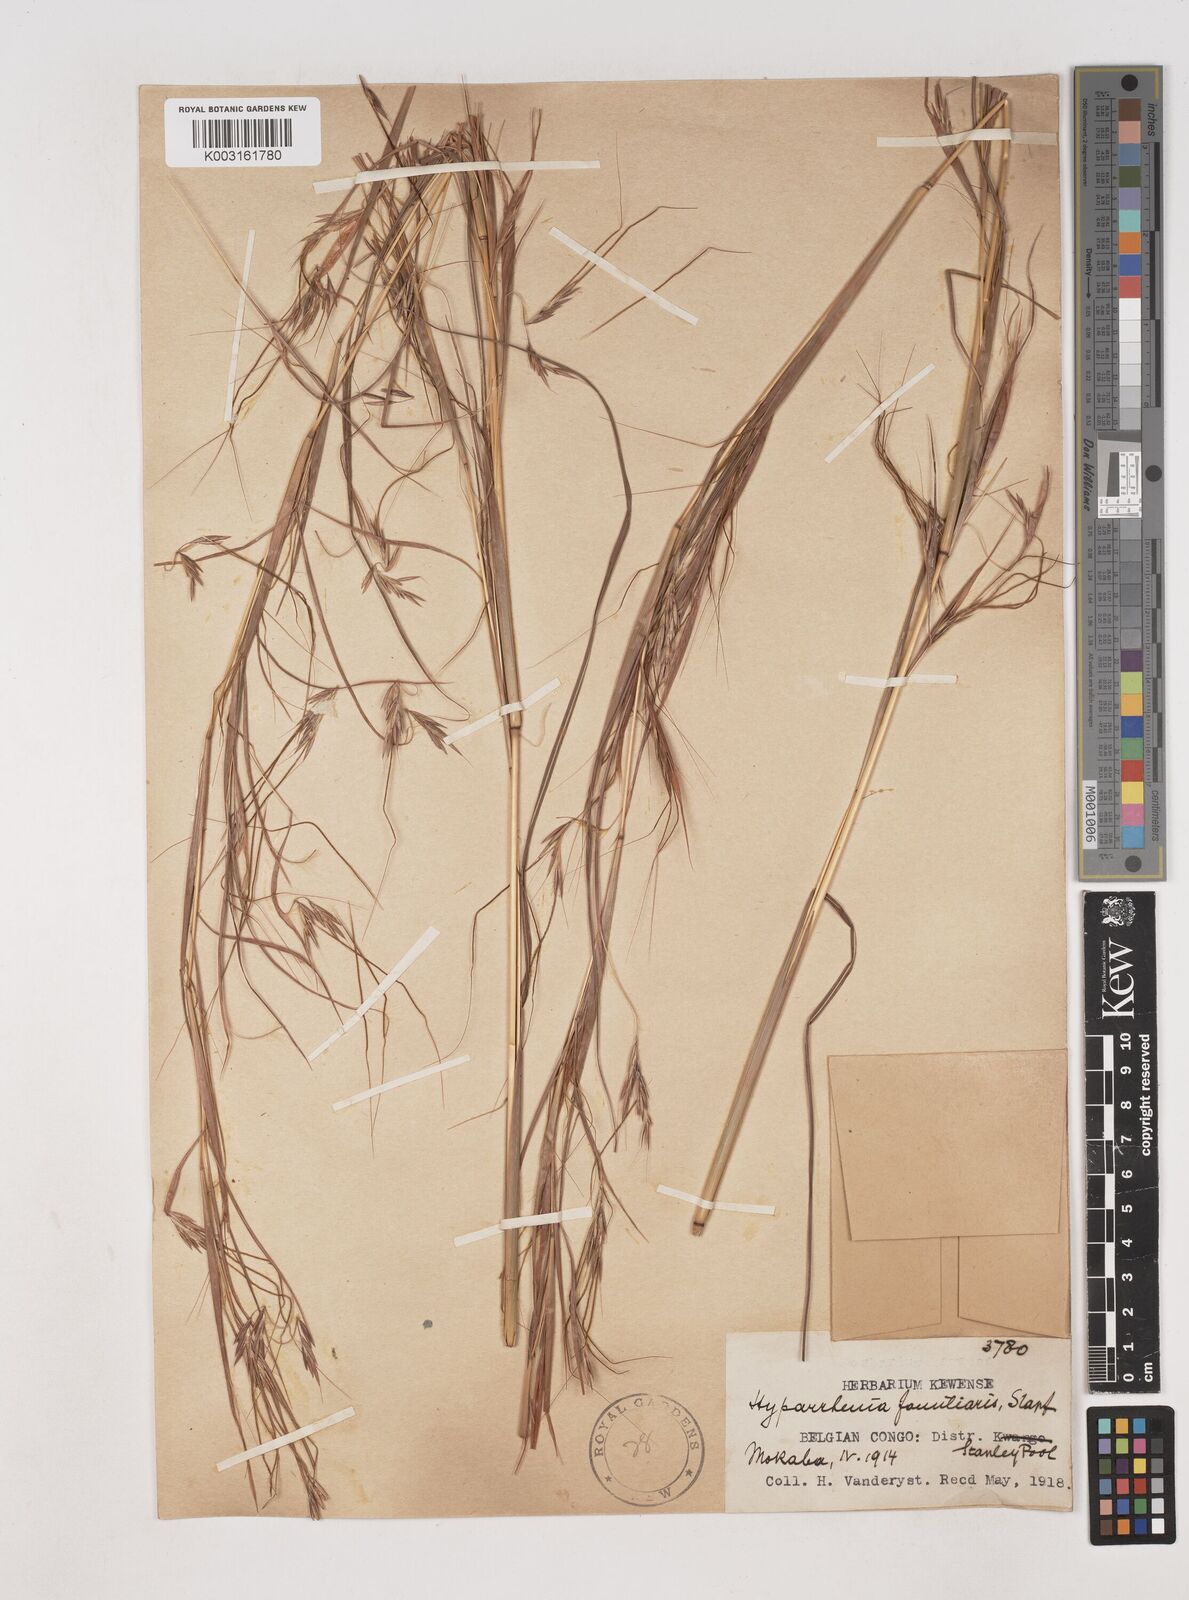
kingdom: Plantae
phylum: Tracheophyta
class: Liliopsida
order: Poales
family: Poaceae
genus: Hyparrhenia
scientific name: Hyparrhenia familiaris
